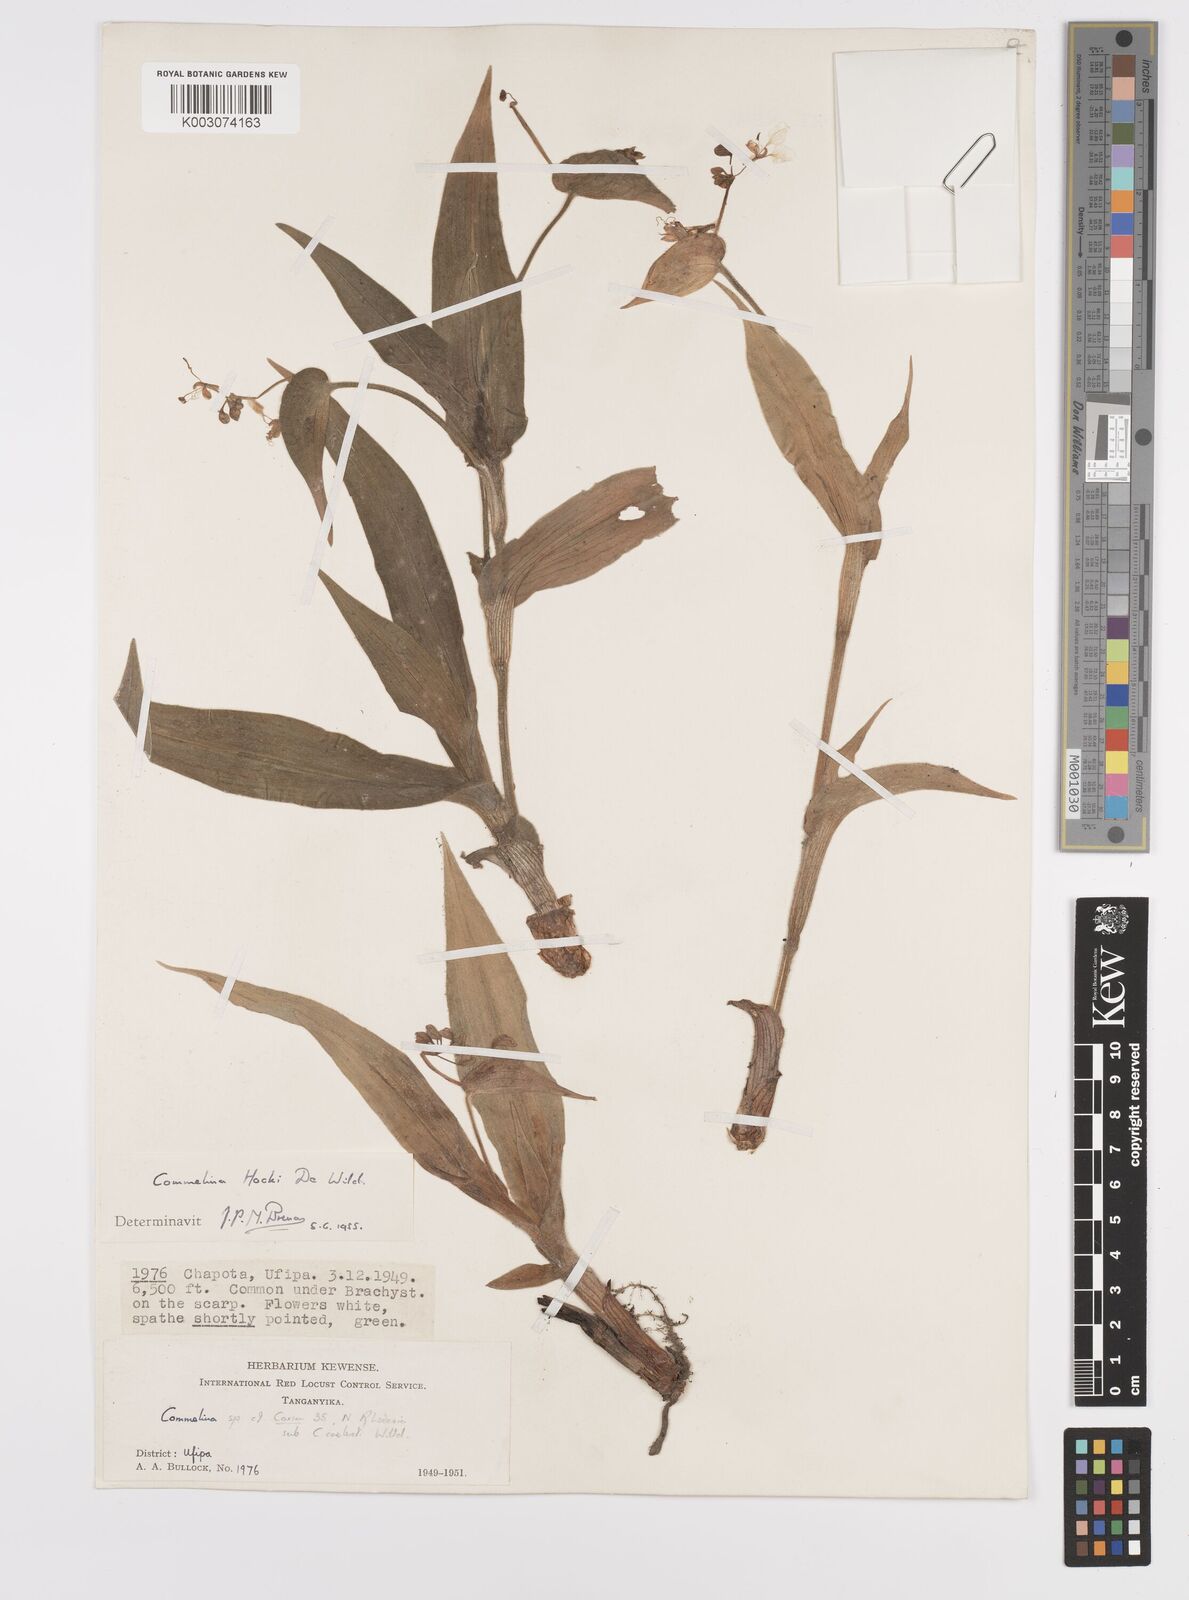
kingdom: Plantae
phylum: Tracheophyta
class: Liliopsida
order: Commelinales
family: Commelinaceae
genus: Commelina
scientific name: Commelina hockii
